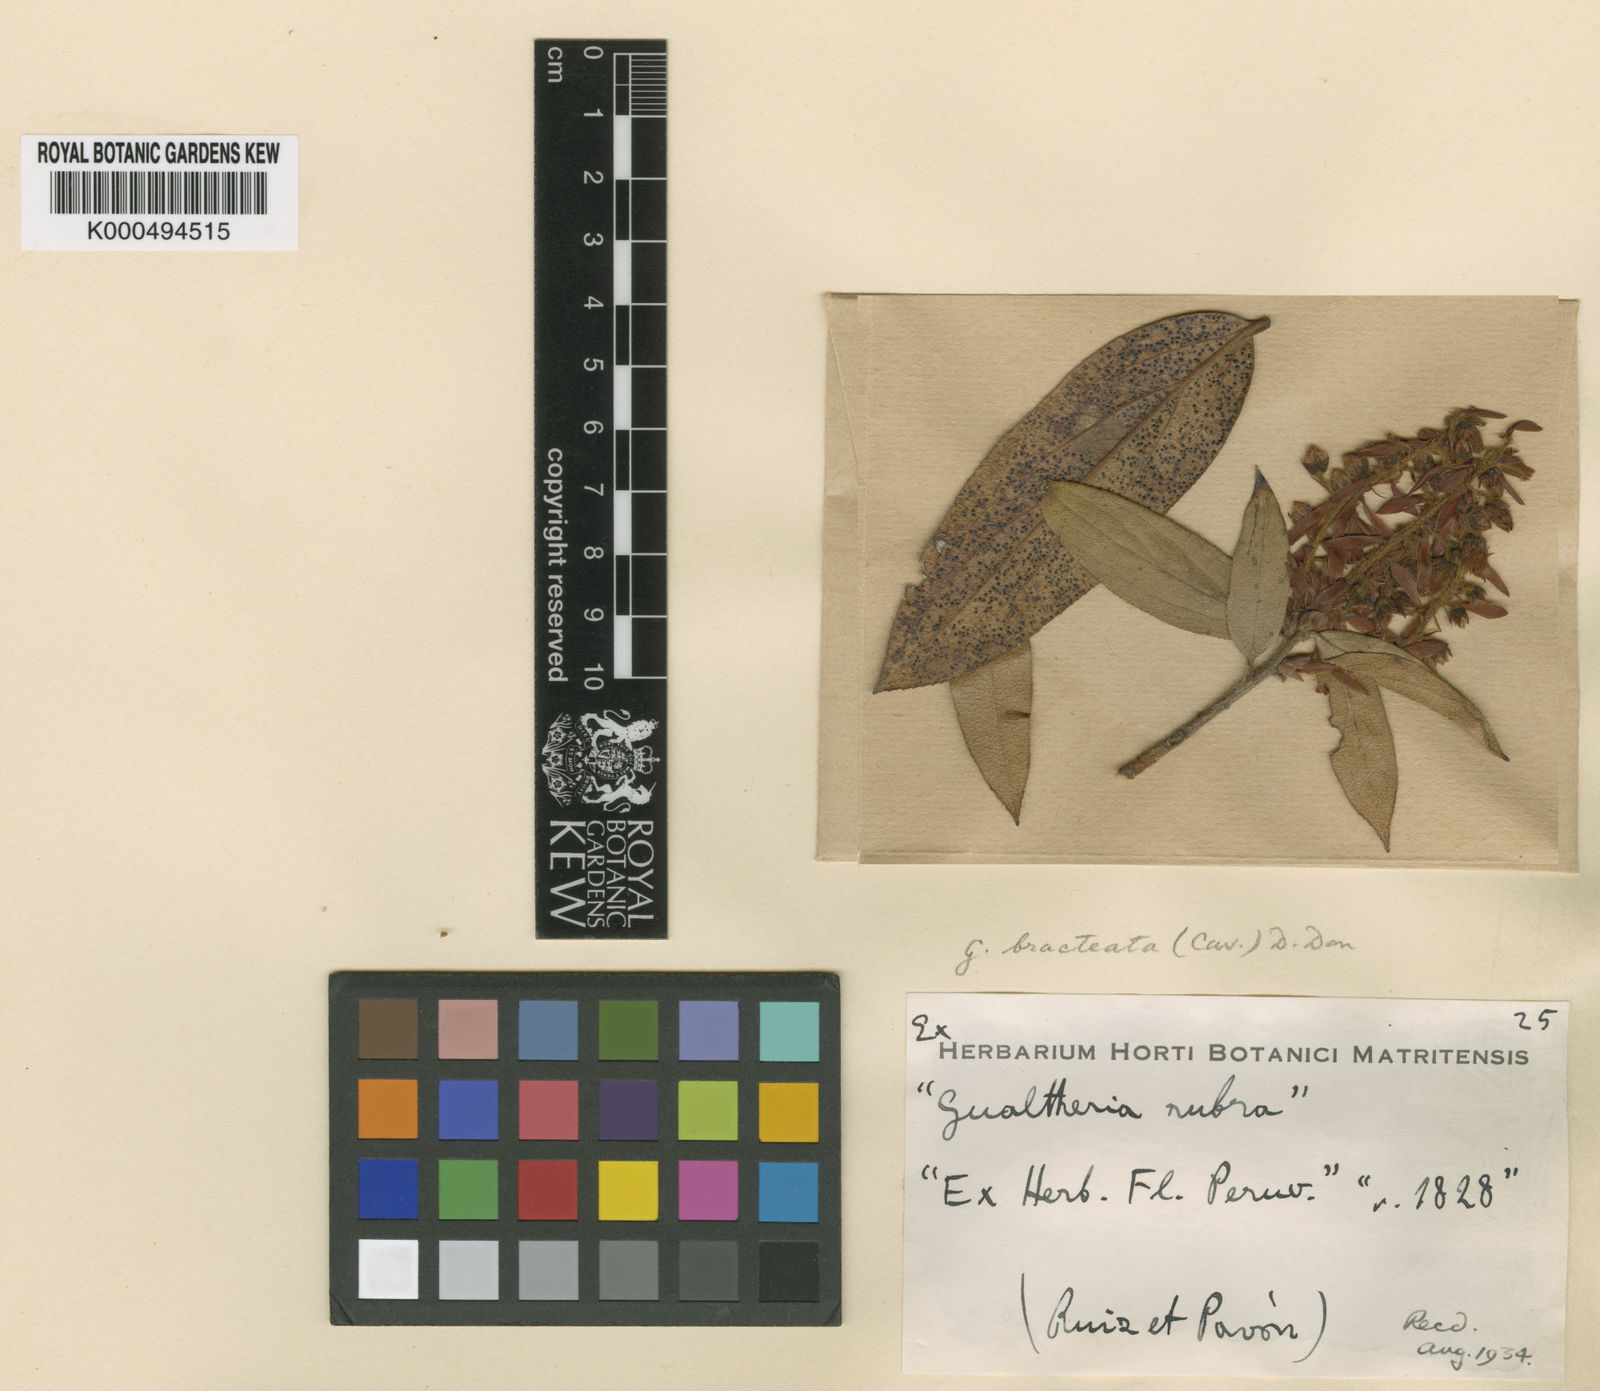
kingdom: Plantae
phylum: Tracheophyta
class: Magnoliopsida
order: Ericales
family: Ericaceae
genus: Gaultheria
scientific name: Gaultheria bracteata
